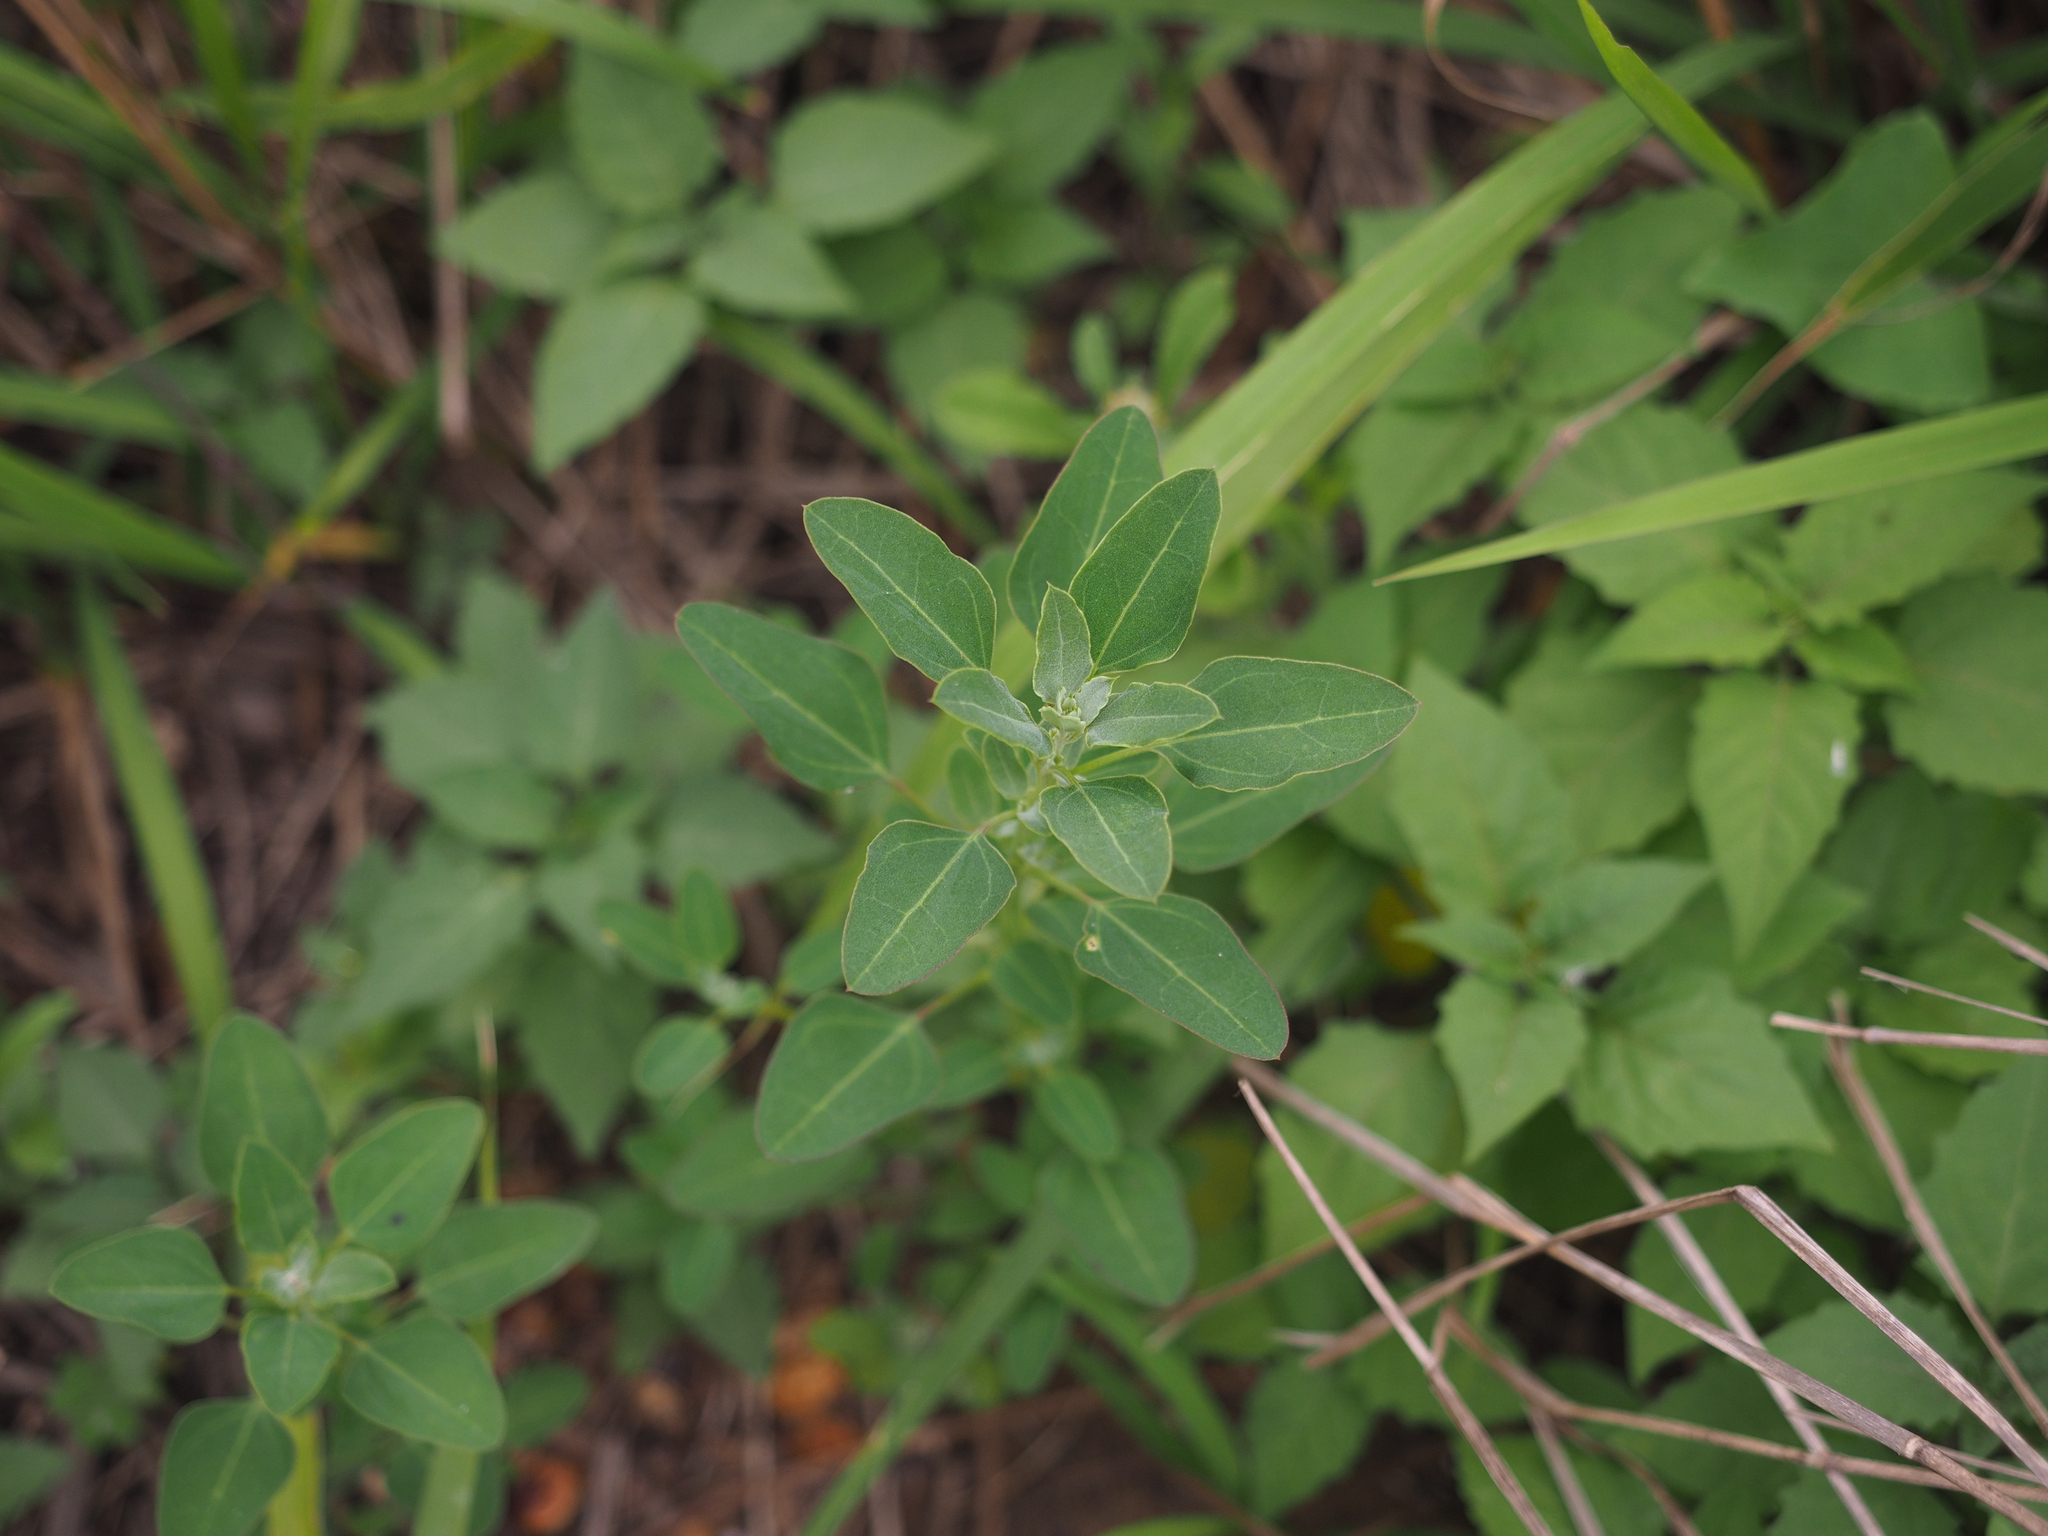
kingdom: Plantae
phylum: Tracheophyta
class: Magnoliopsida
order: Caryophyllales
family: Amaranthaceae
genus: Chenopodium
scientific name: Chenopodium acuminatum
